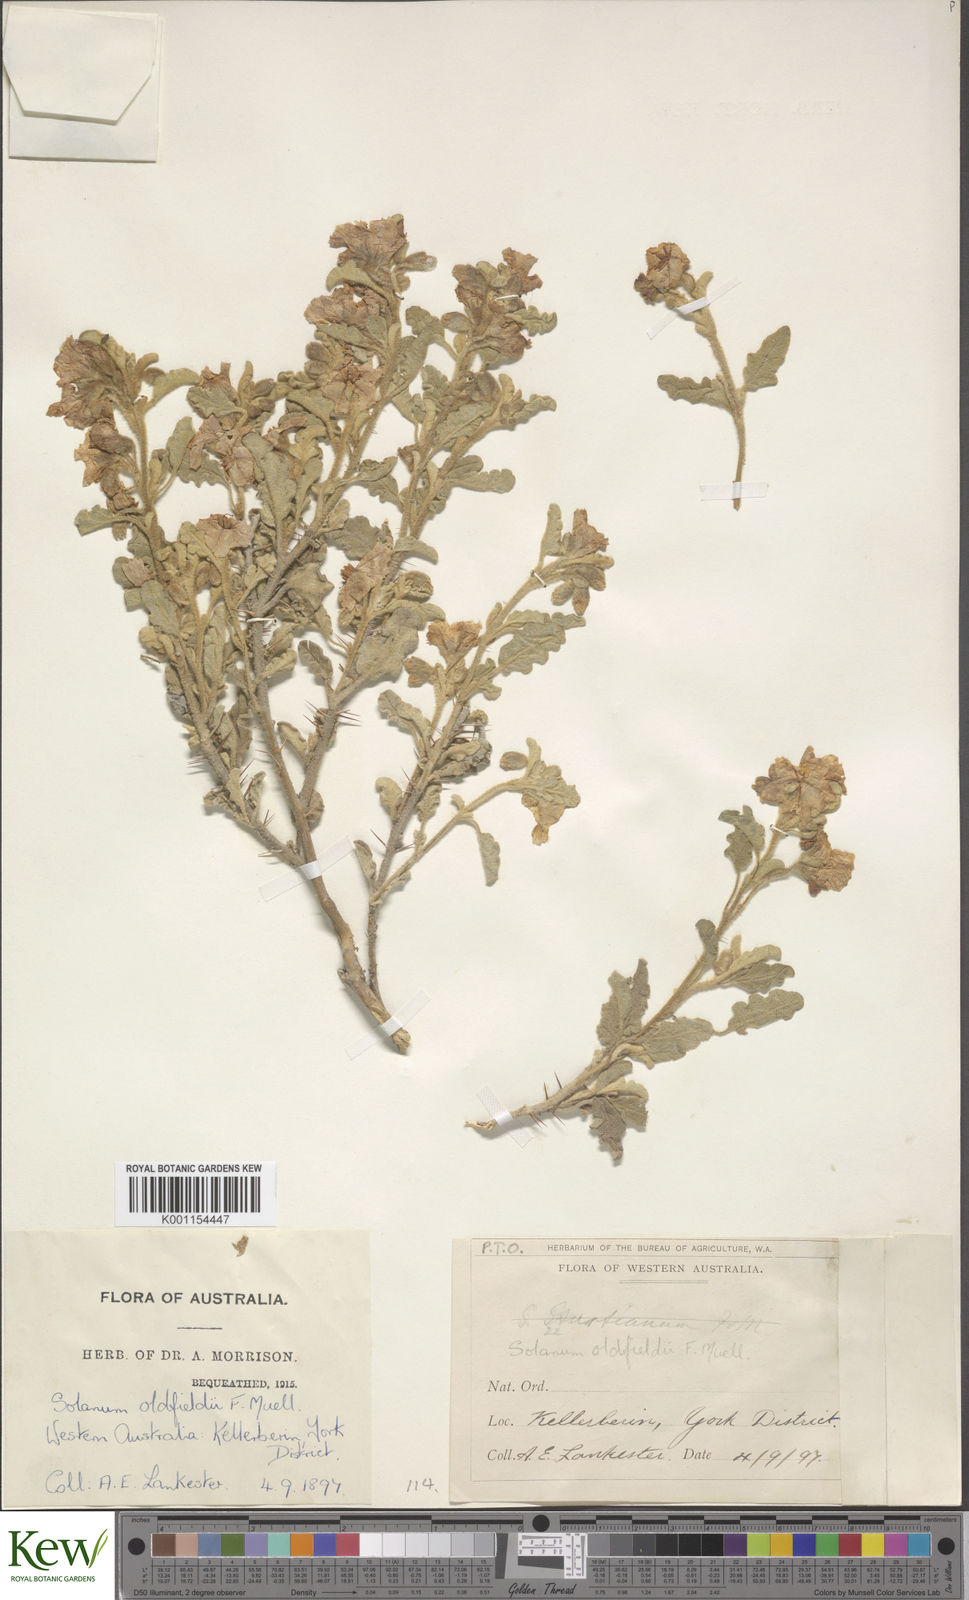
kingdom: Plantae
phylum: Tracheophyta
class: Magnoliopsida
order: Solanales
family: Solanaceae
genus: Solanum
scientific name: Solanum plicatile
